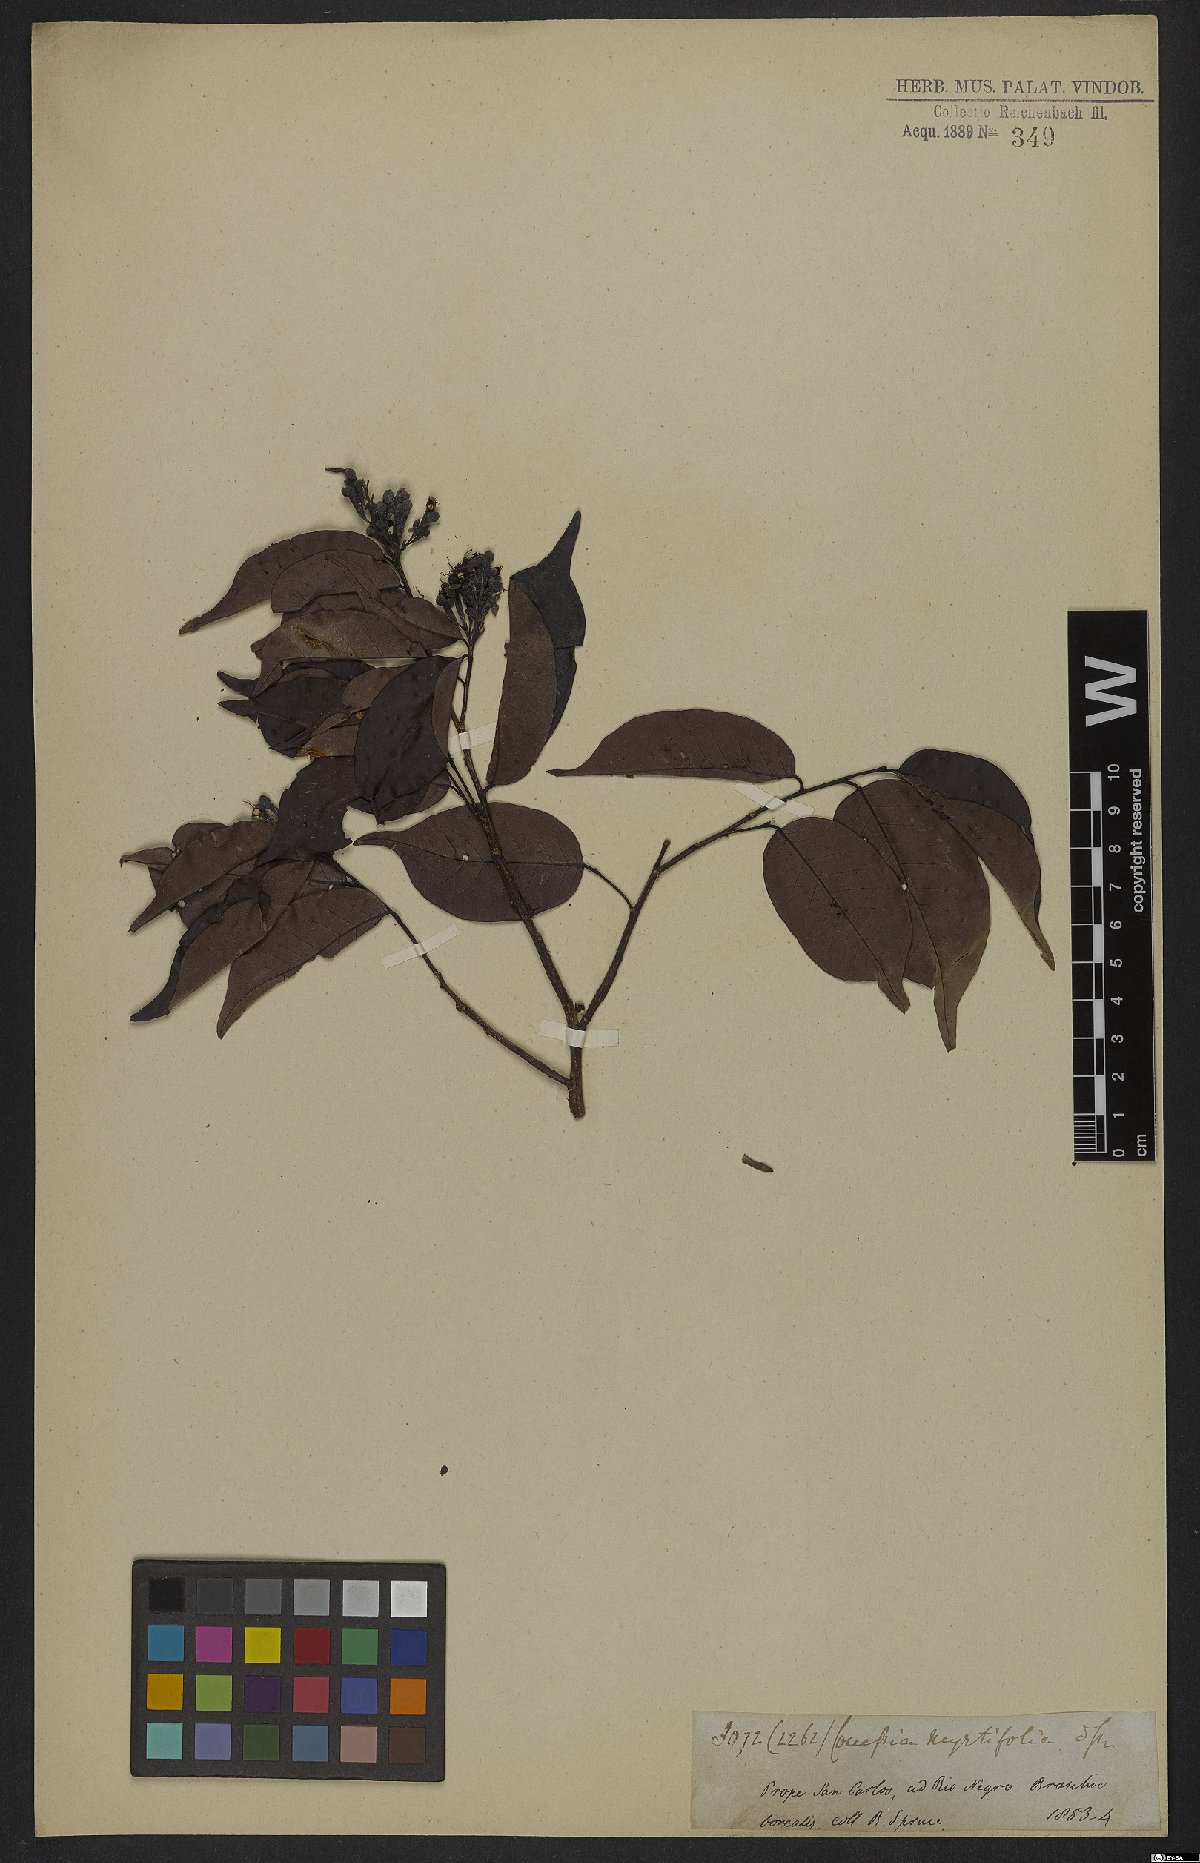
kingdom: Plantae
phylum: Tracheophyta
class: Magnoliopsida
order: Malpighiales
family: Chrysobalanaceae
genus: Couepia
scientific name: Couepia guianensis
